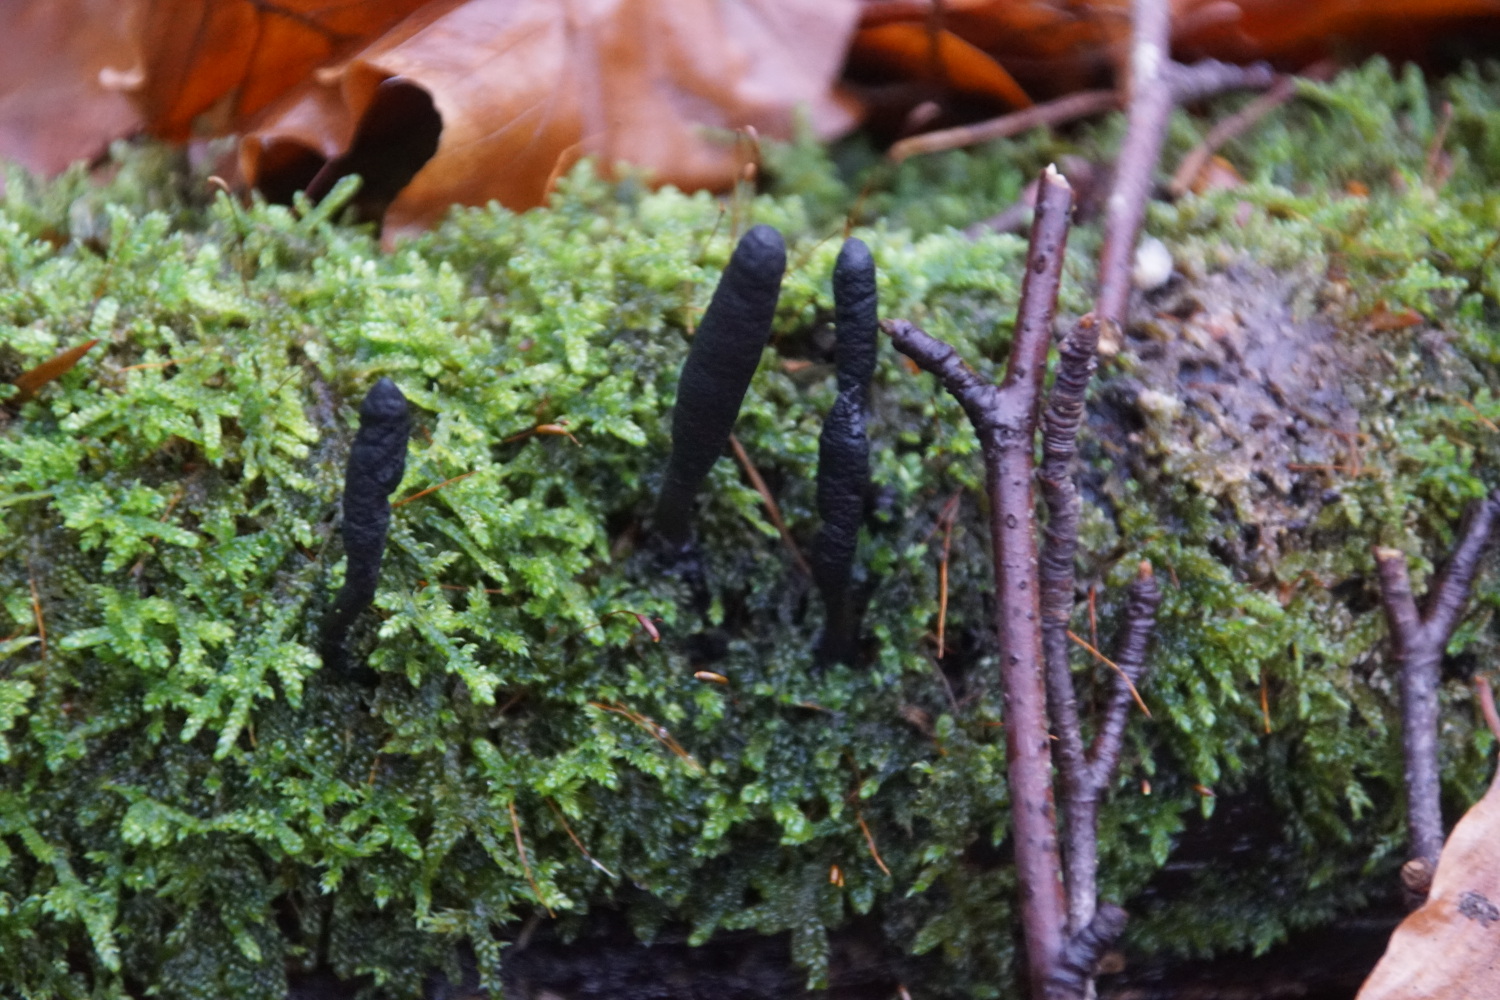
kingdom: Fungi
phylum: Ascomycota
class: Sordariomycetes
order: Xylariales
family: Xylariaceae
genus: Xylaria
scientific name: Xylaria longipes
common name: slank stødsvamp
